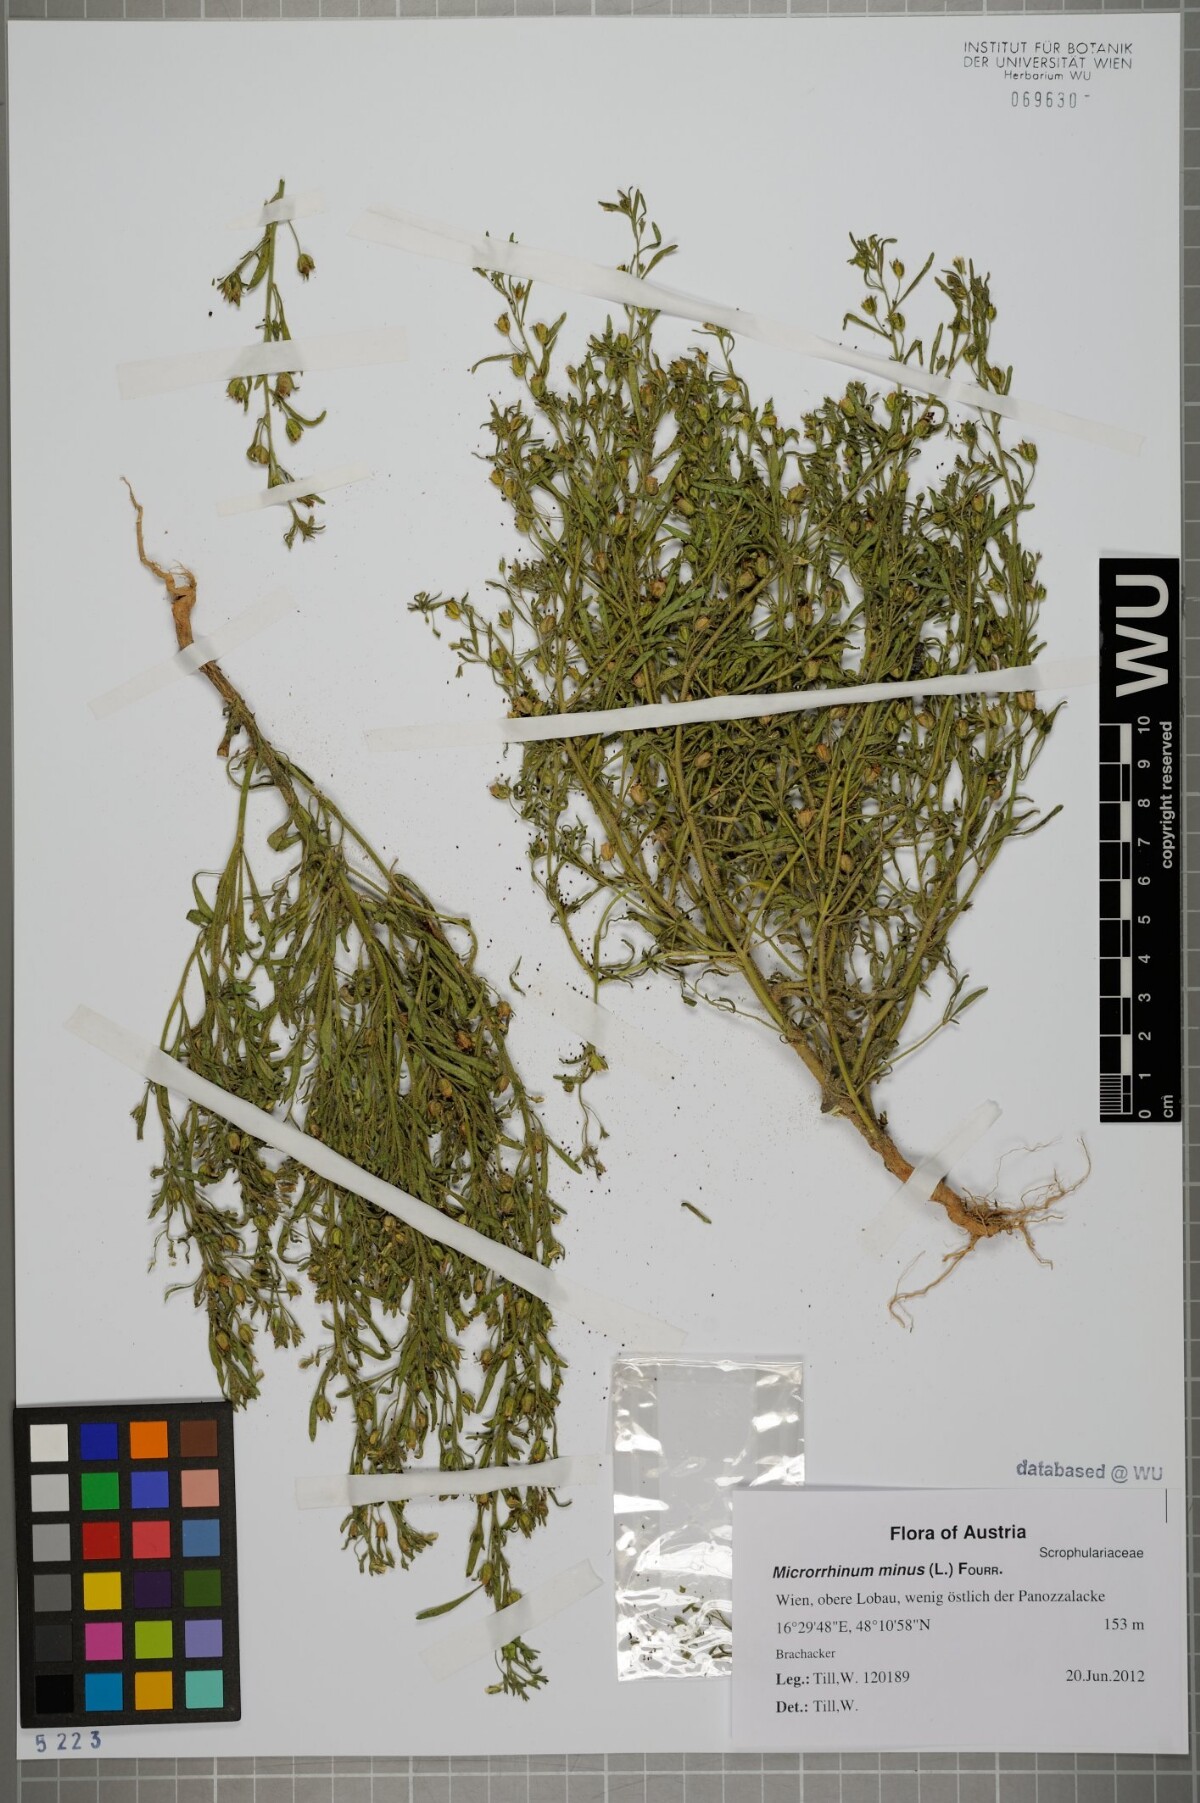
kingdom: Plantae
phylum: Tracheophyta
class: Magnoliopsida
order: Lamiales
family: Plantaginaceae
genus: Chaenorhinum
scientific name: Chaenorhinum minus
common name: Dwarf snapdragon
